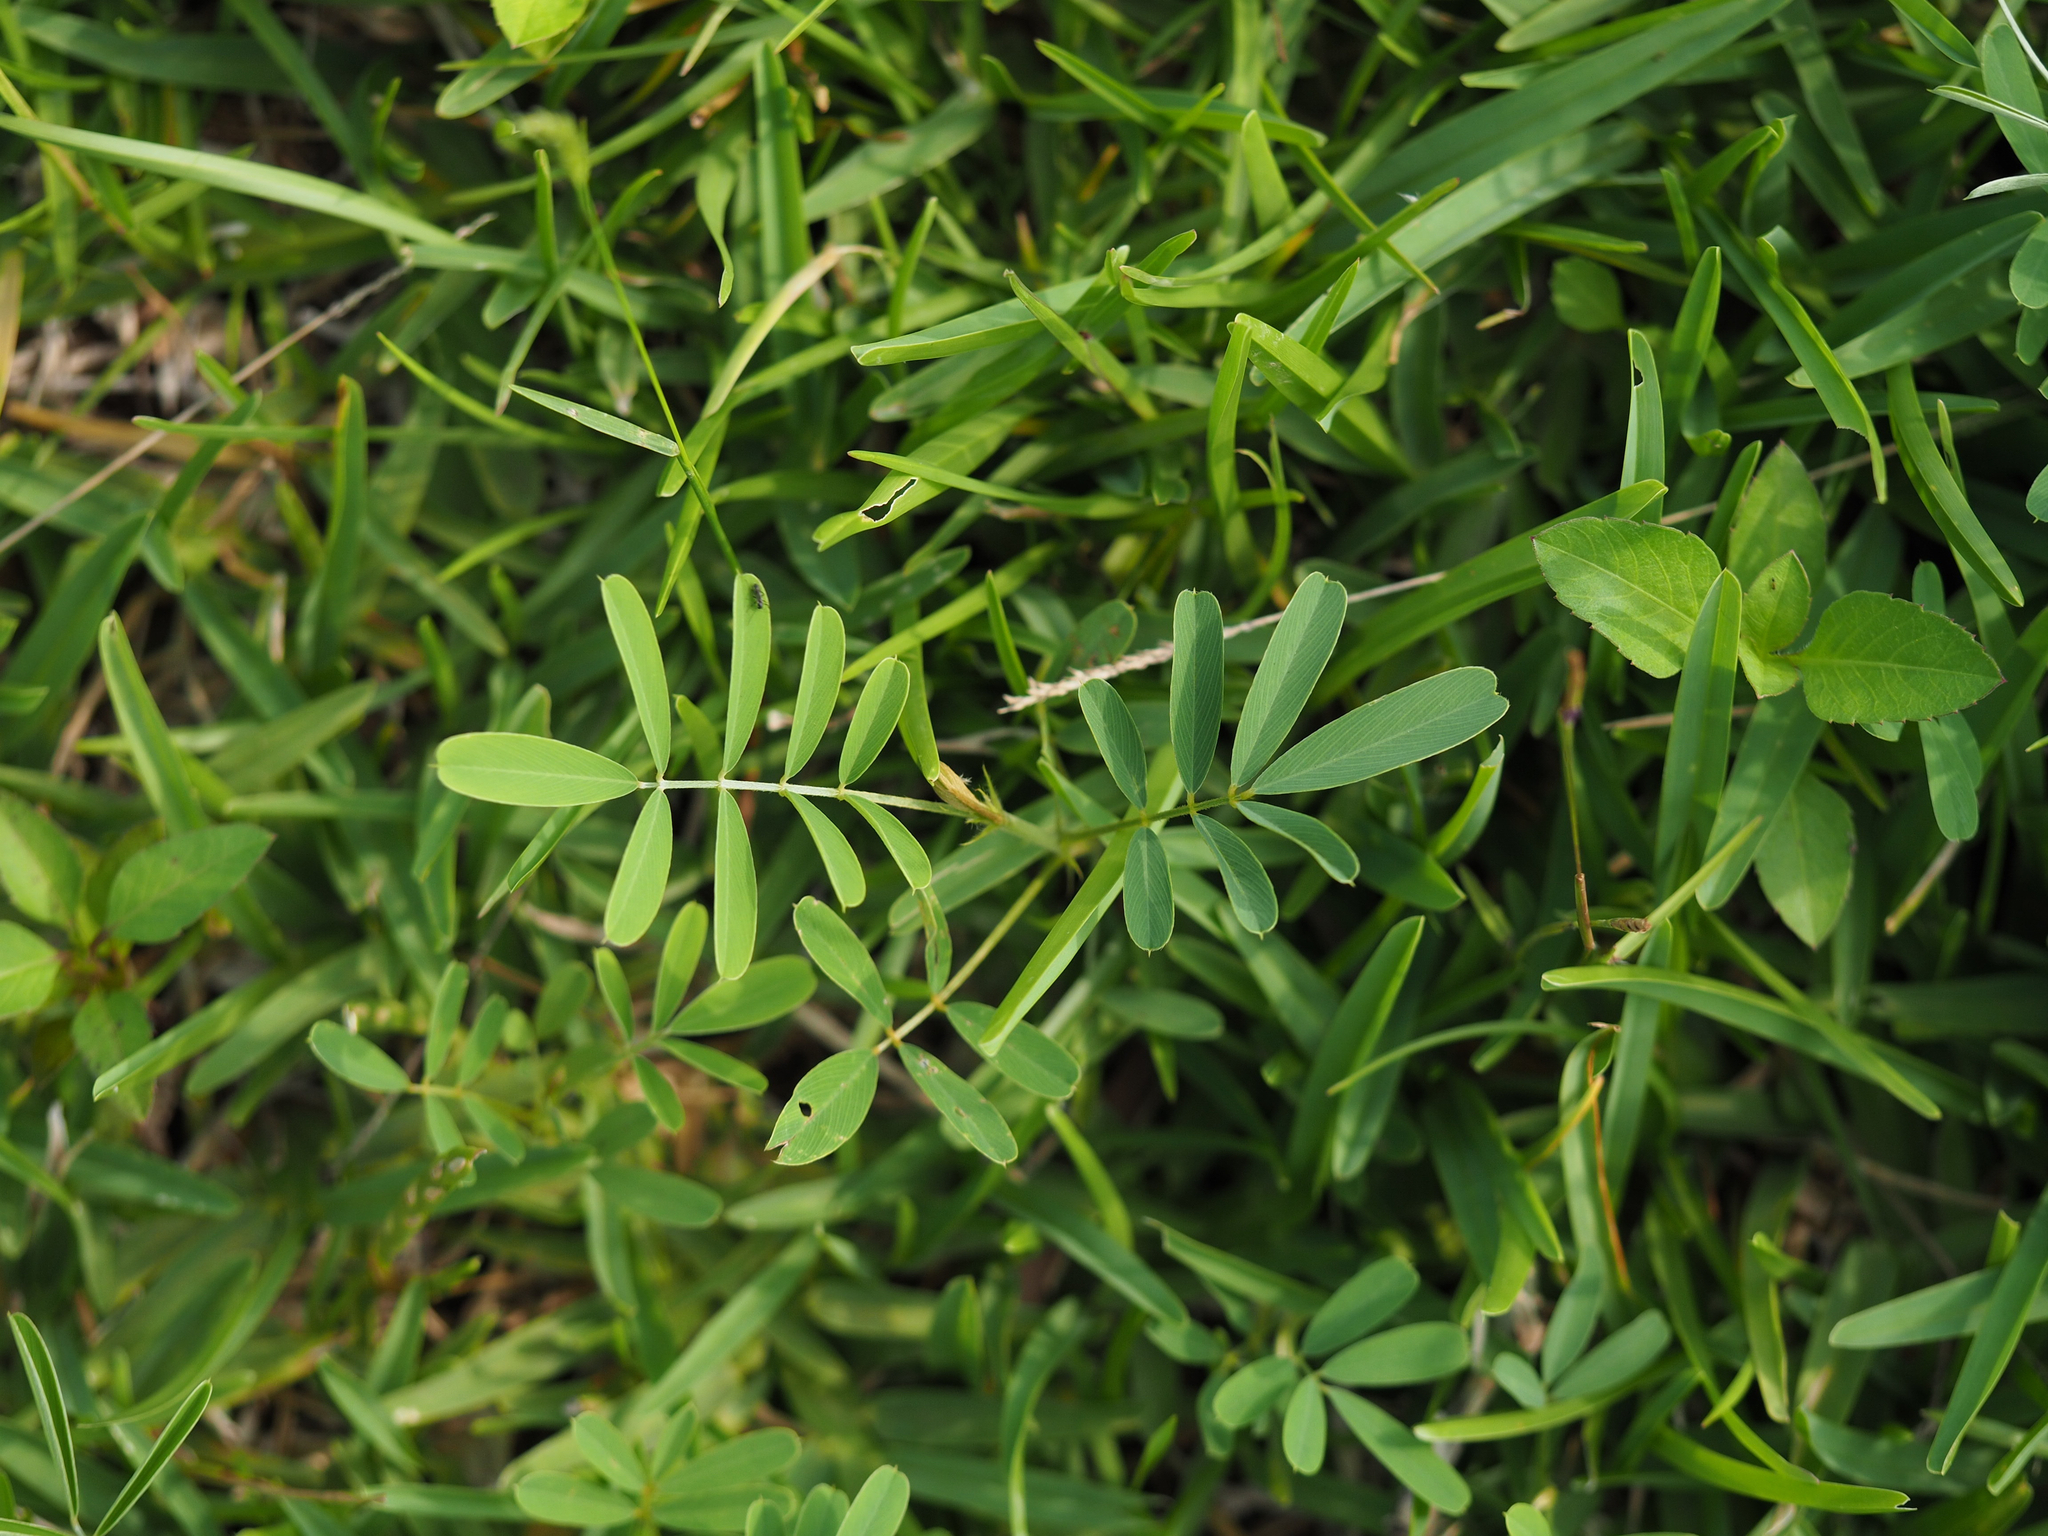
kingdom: Plantae
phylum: Tracheophyta
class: Magnoliopsida
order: Fabales
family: Fabaceae
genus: Indigofera
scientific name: Indigofera spicata
